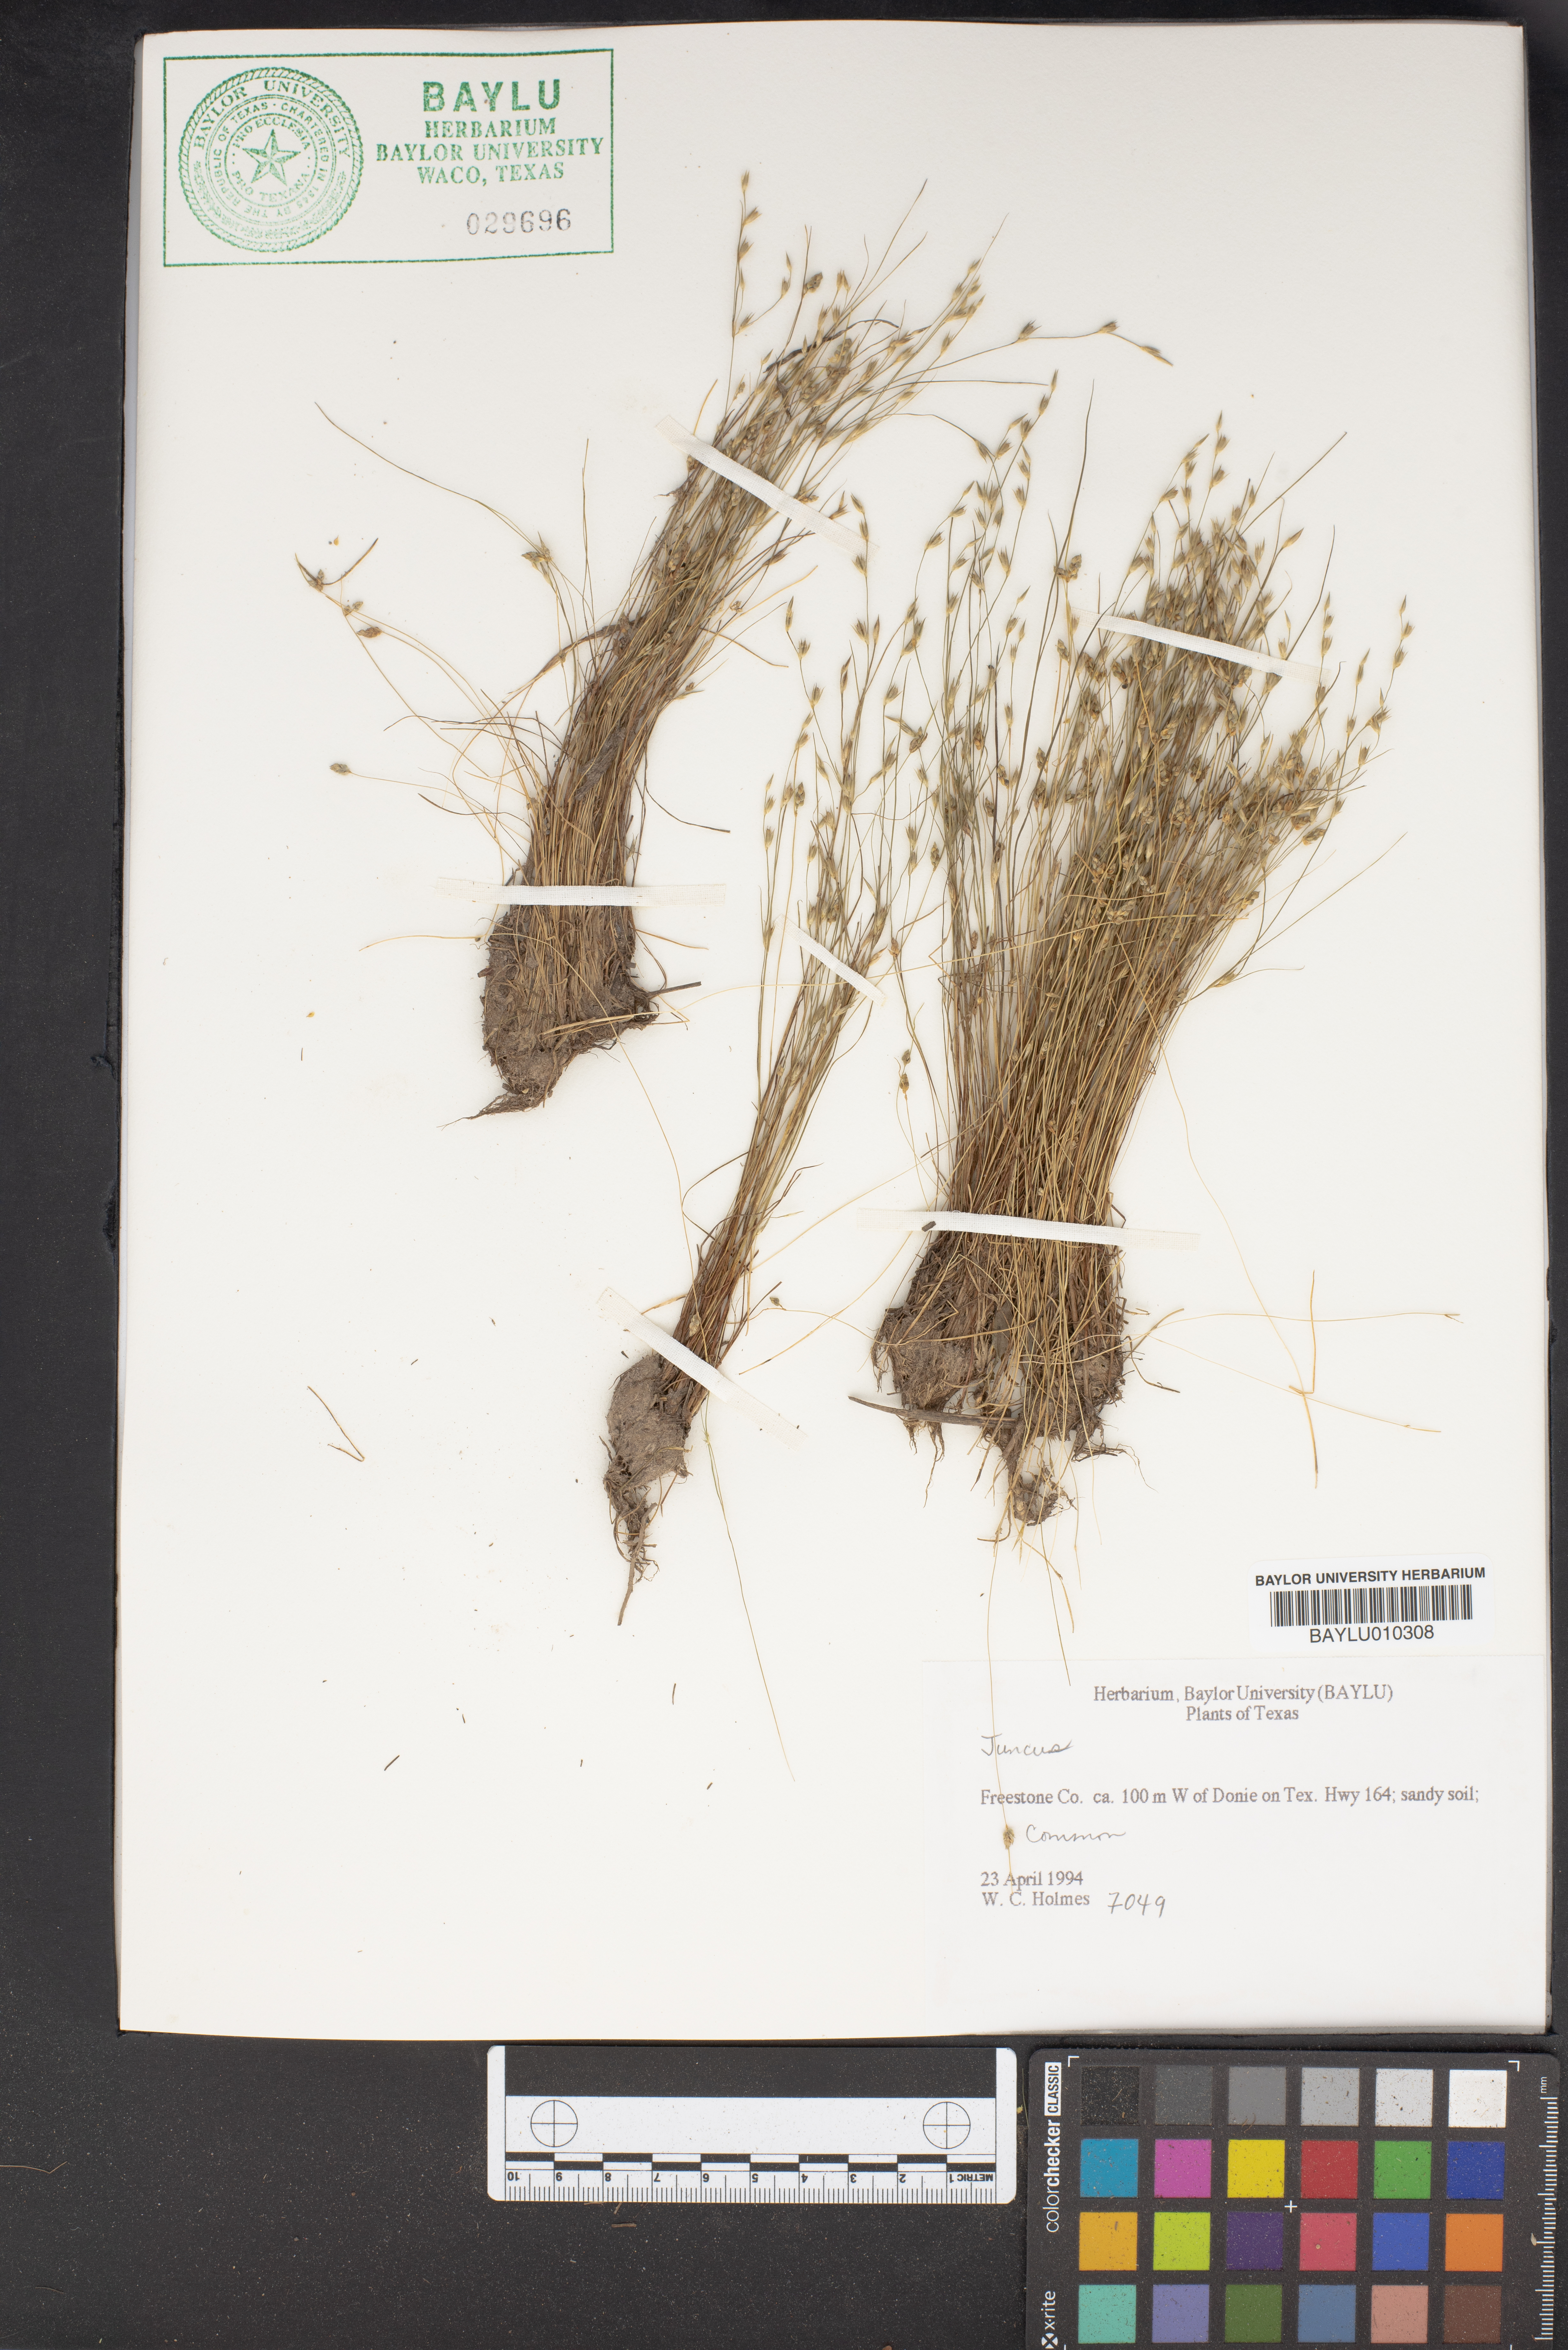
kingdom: Plantae
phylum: Tracheophyta
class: Liliopsida
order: Poales
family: Juncaceae
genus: Juncus
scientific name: Juncus
